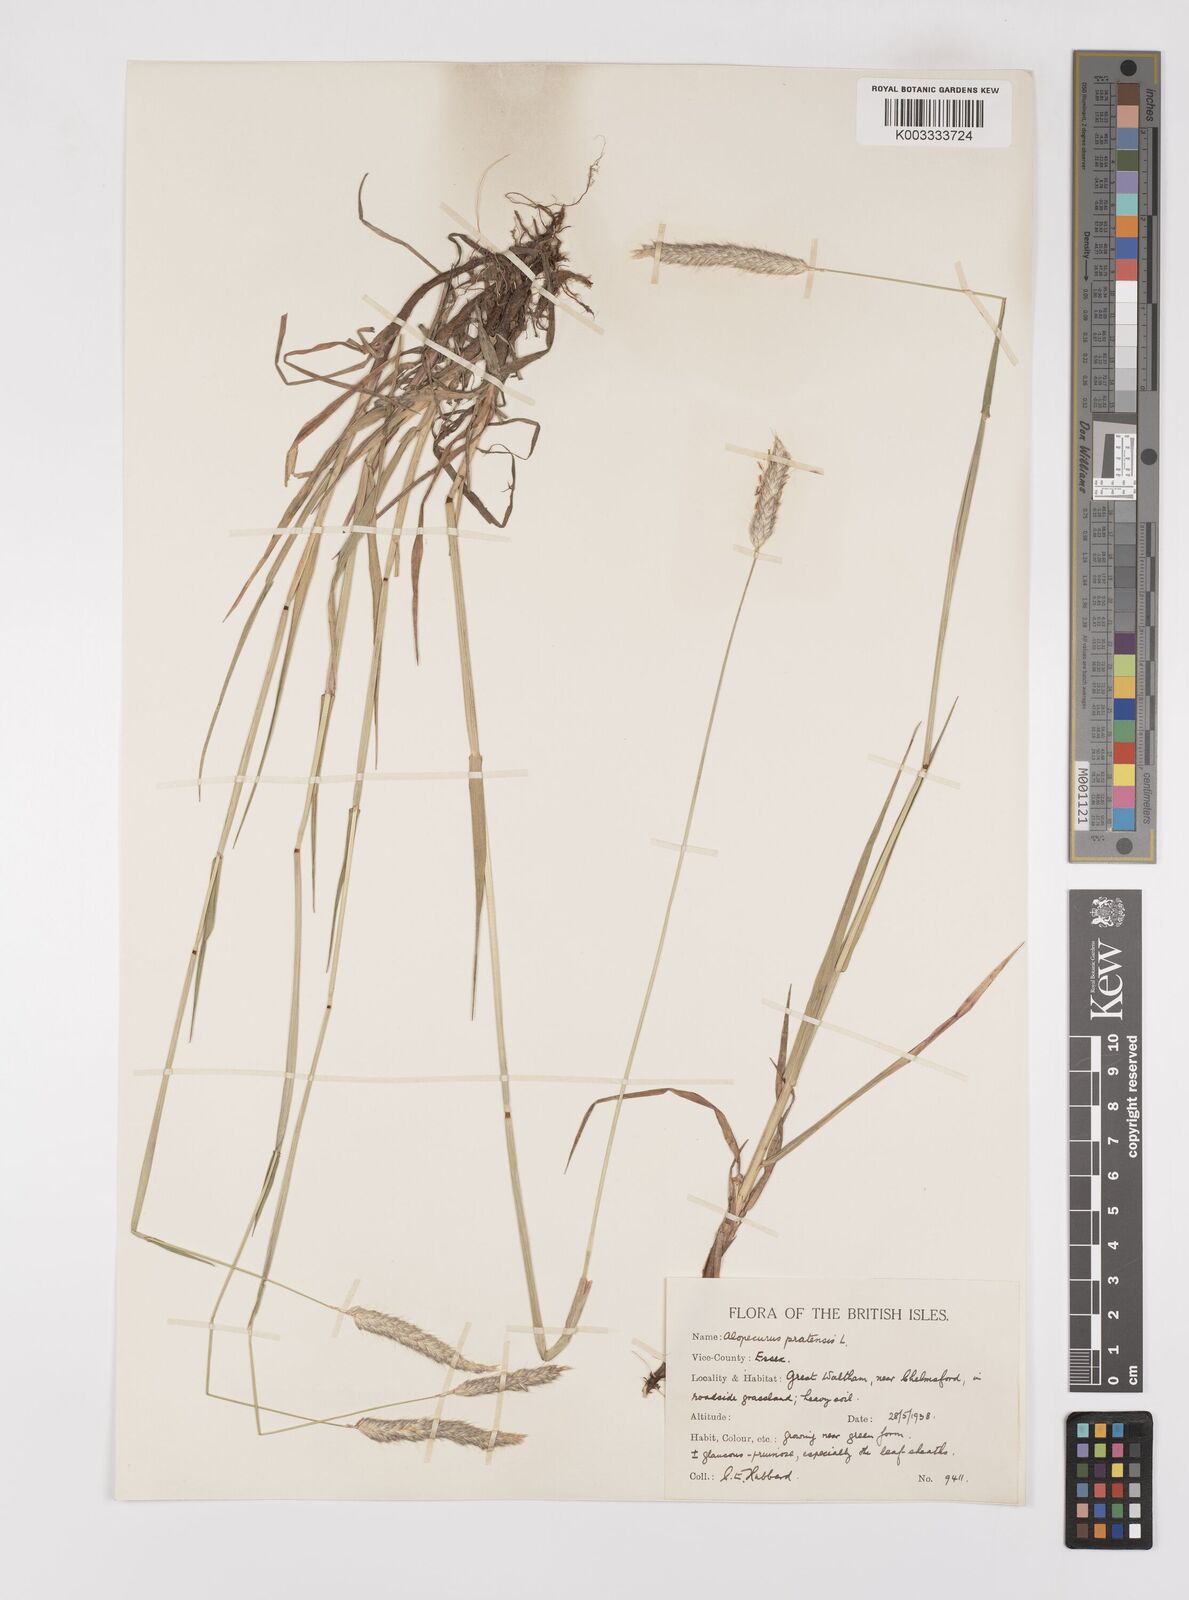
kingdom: Plantae
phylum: Tracheophyta
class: Liliopsida
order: Poales
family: Poaceae
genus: Alopecurus
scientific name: Alopecurus pratensis
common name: Meadow foxtail
